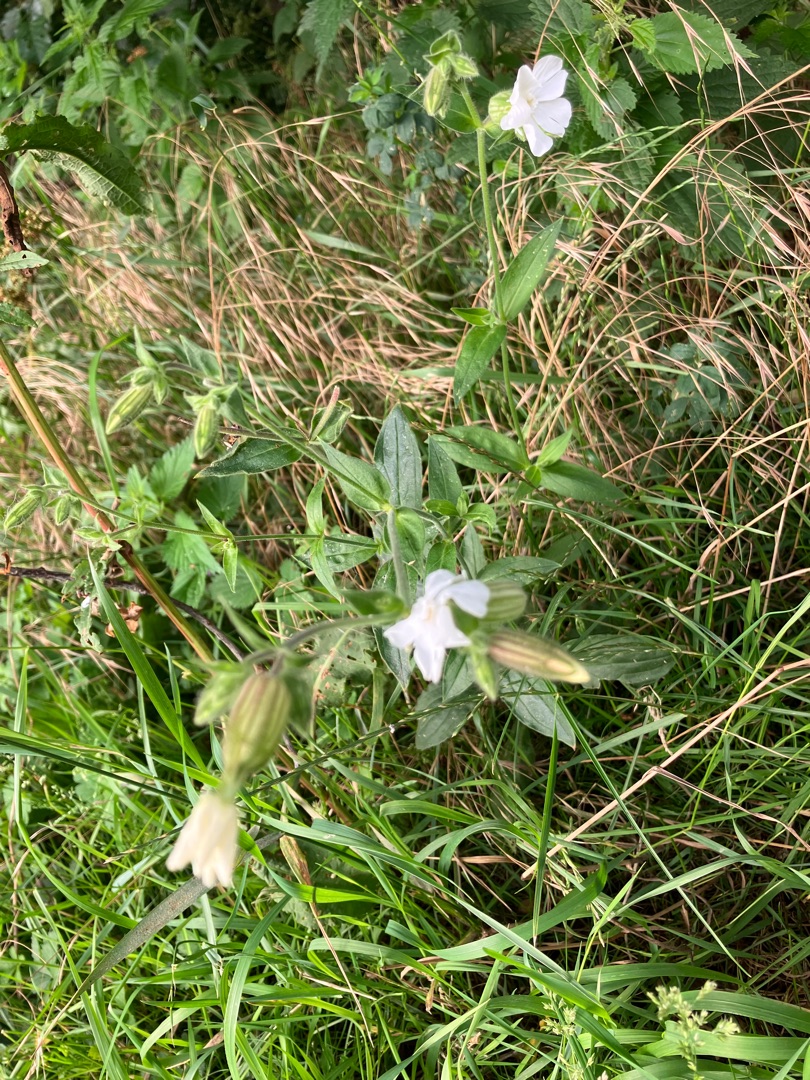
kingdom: Plantae
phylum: Tracheophyta
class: Magnoliopsida
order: Caryophyllales
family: Caryophyllaceae
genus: Silene
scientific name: Silene latifolia
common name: Aftenpragtstjerne
